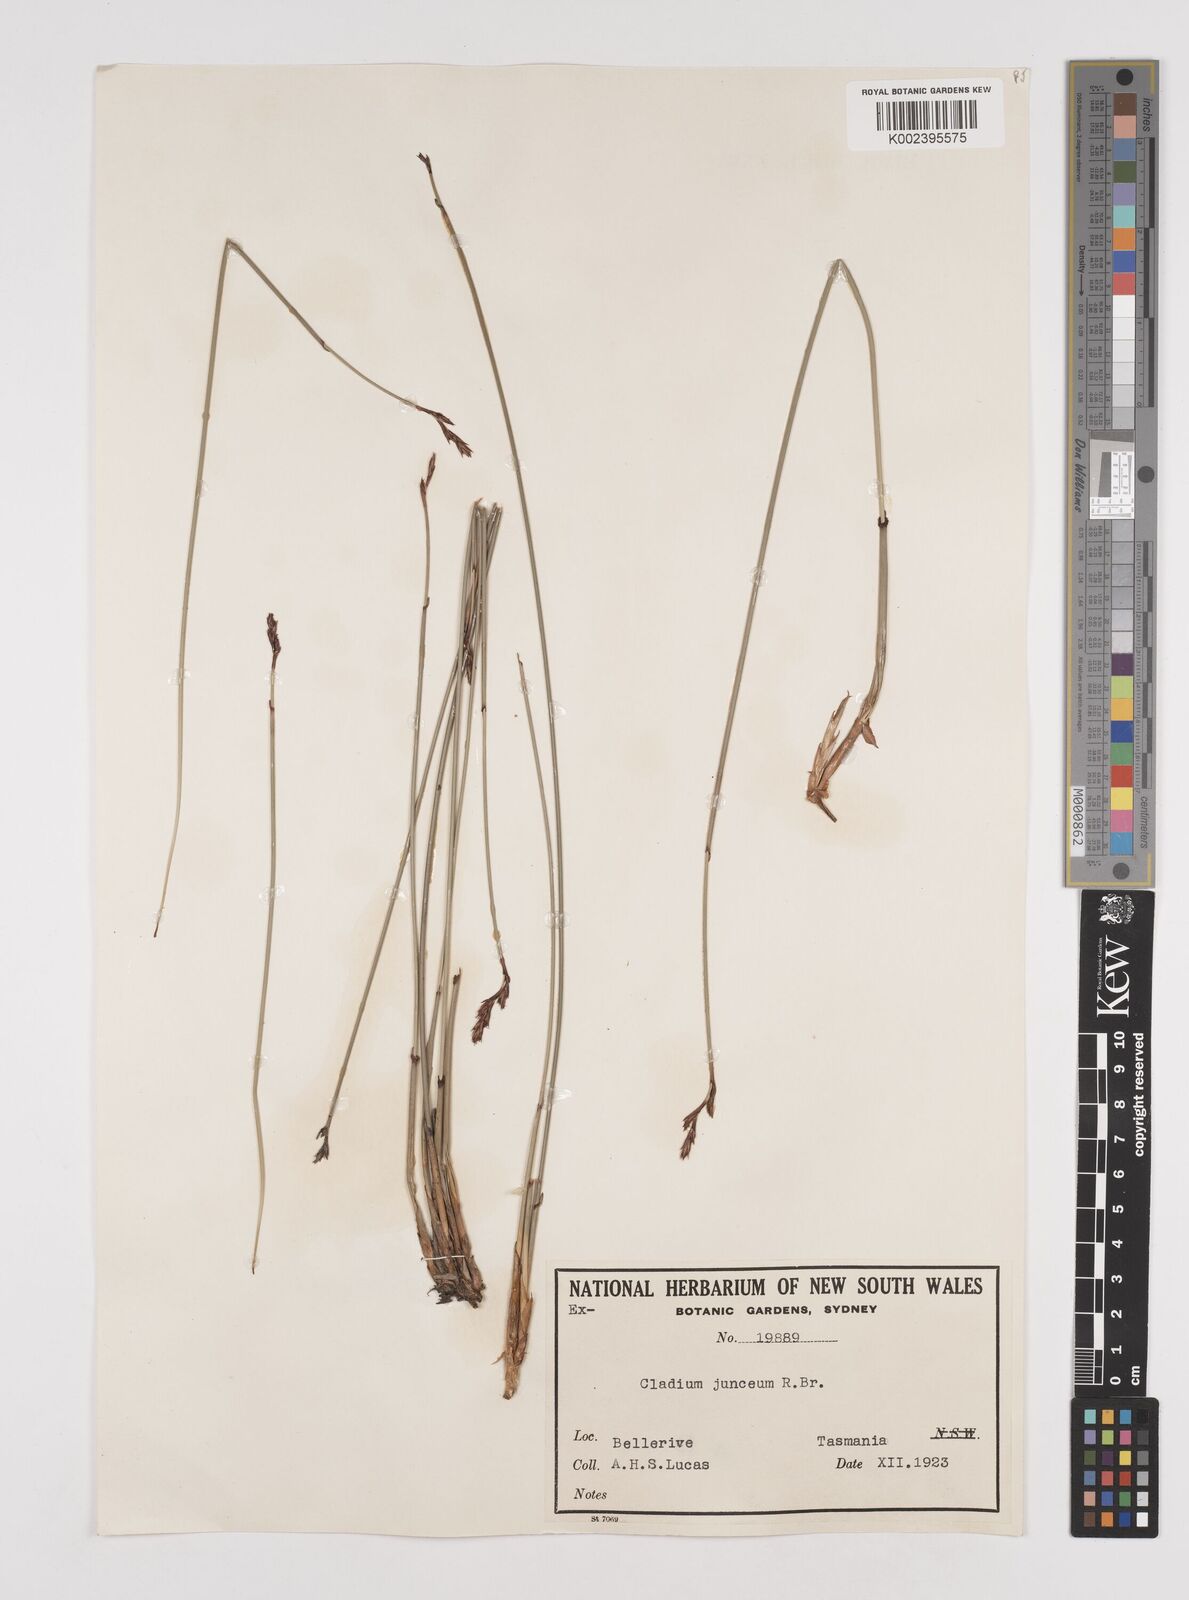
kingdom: Plantae
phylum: Tracheophyta
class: Liliopsida
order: Poales
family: Cyperaceae
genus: Machaerina
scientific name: Machaerina juncea
